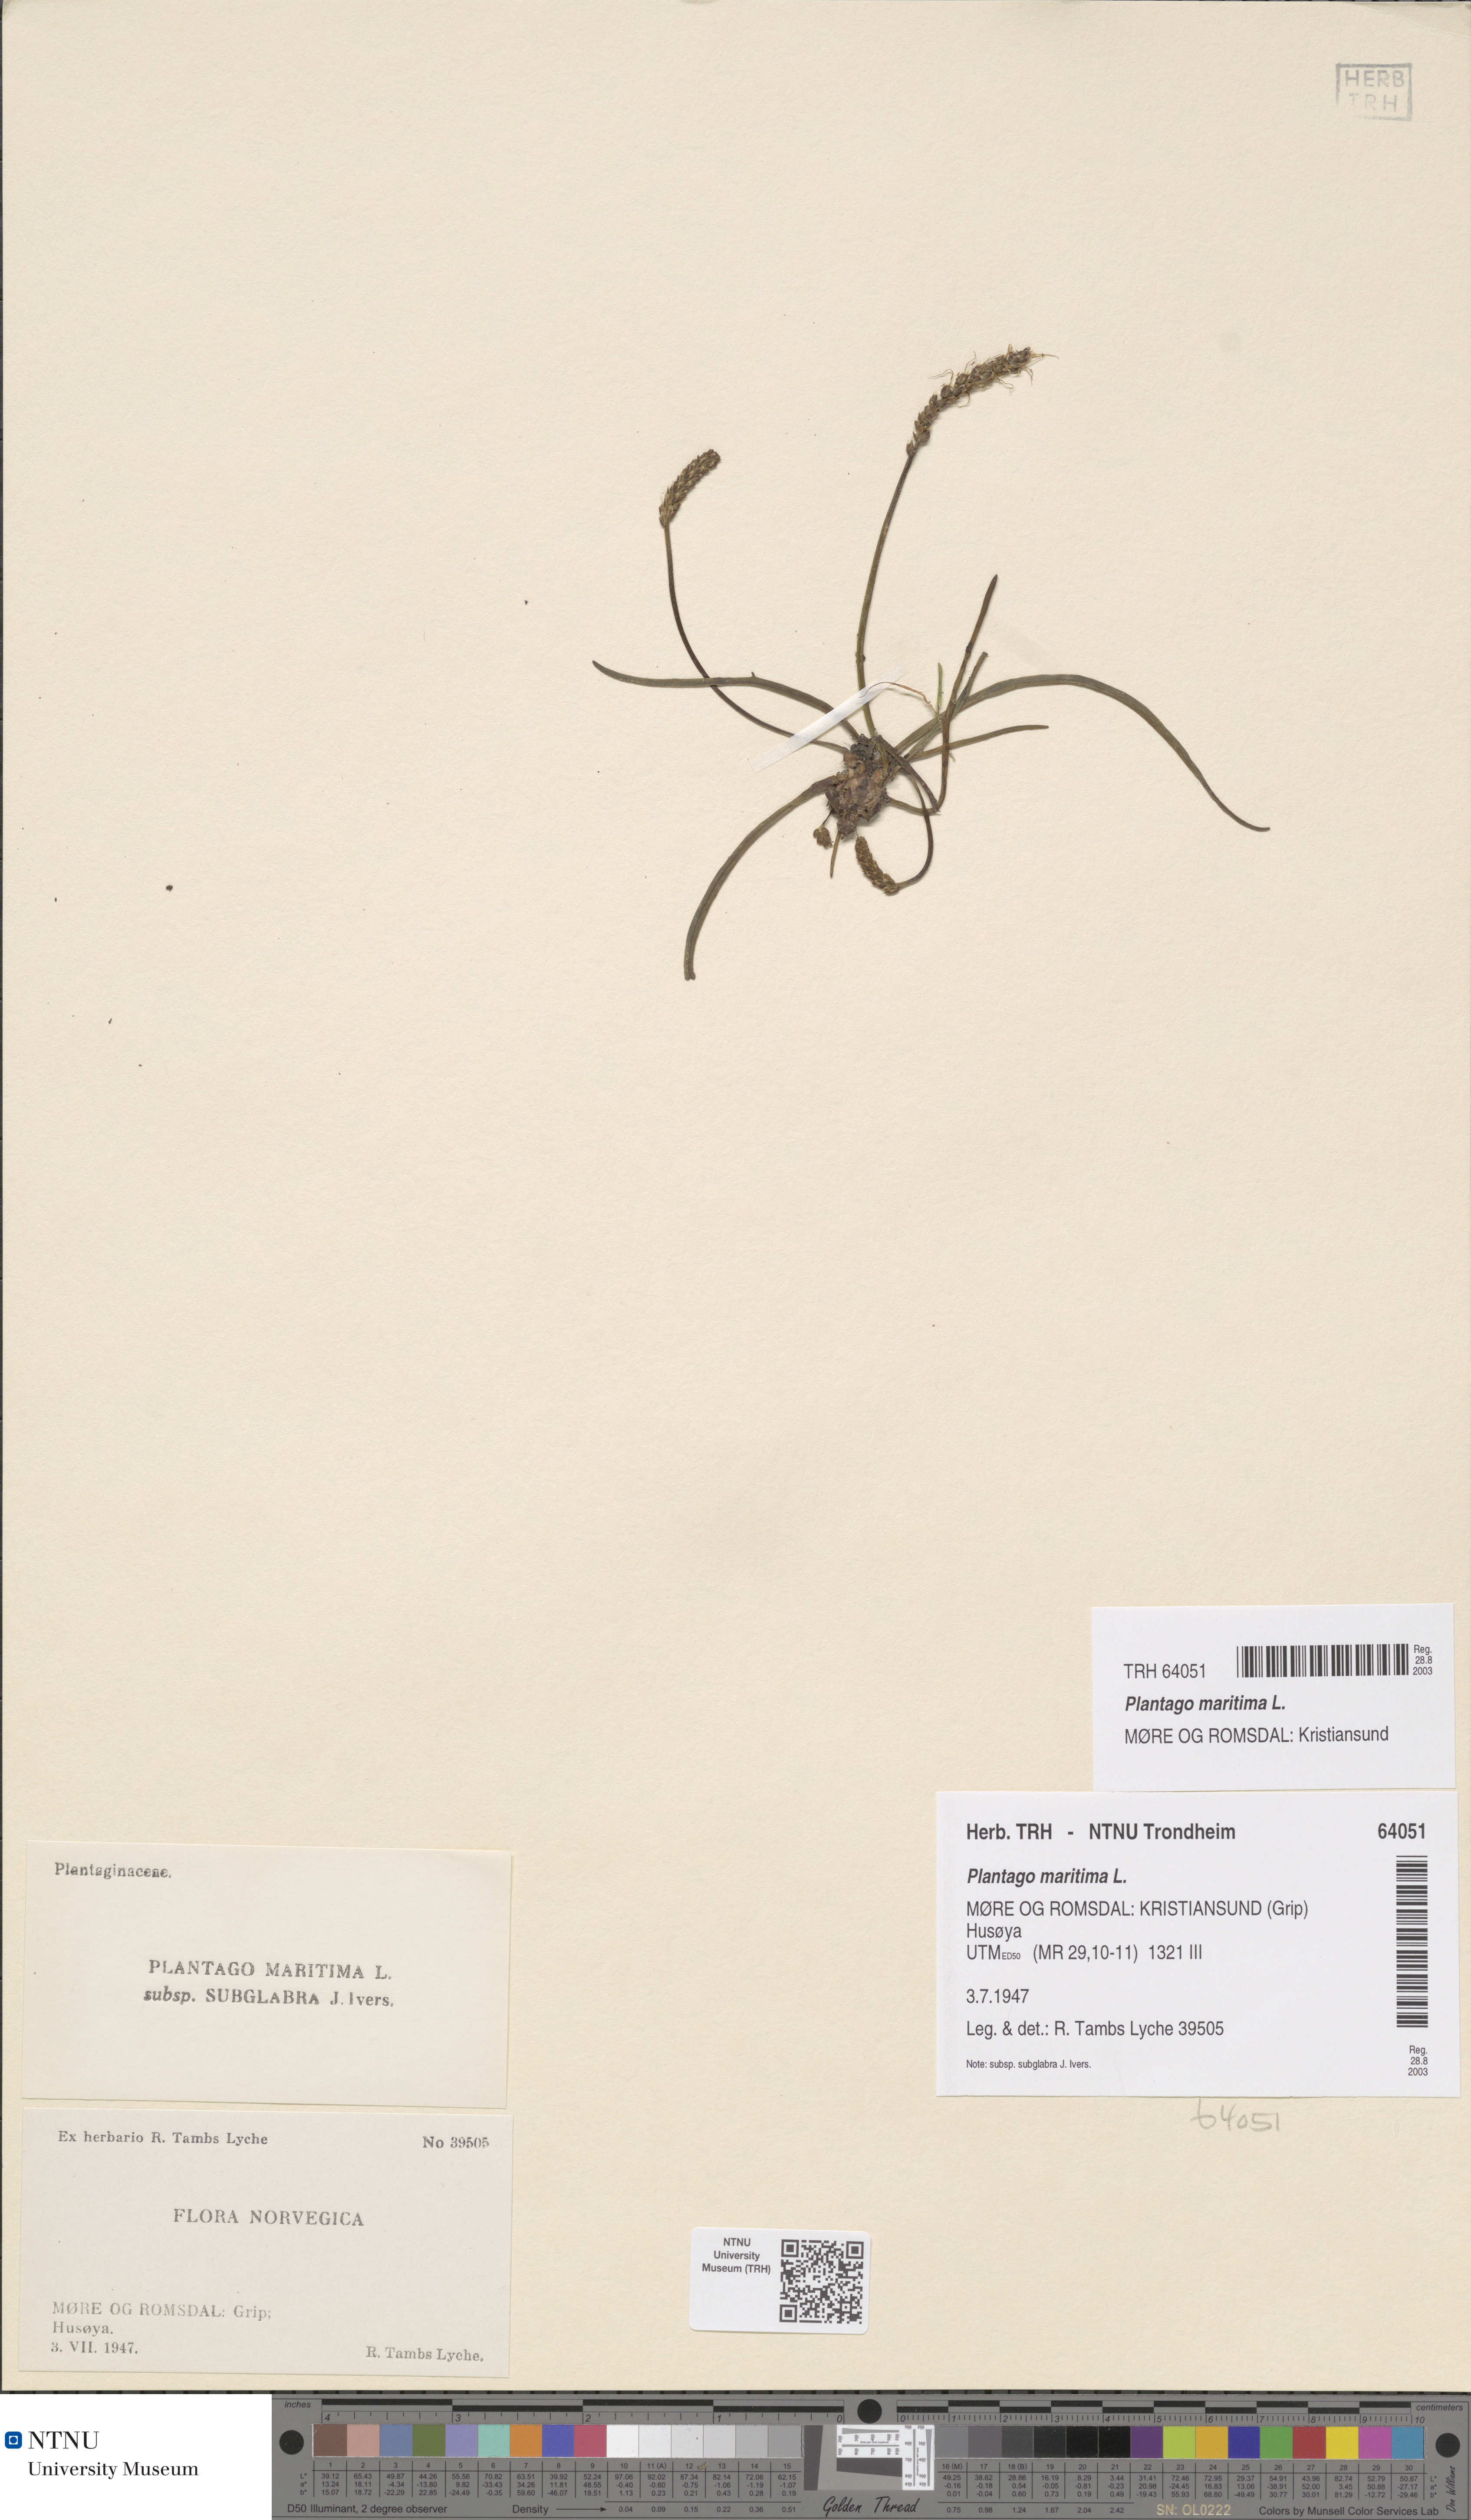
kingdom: Plantae
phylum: Tracheophyta
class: Magnoliopsida
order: Lamiales
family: Plantaginaceae
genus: Plantago
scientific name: Plantago maritima
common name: Sea plantain
